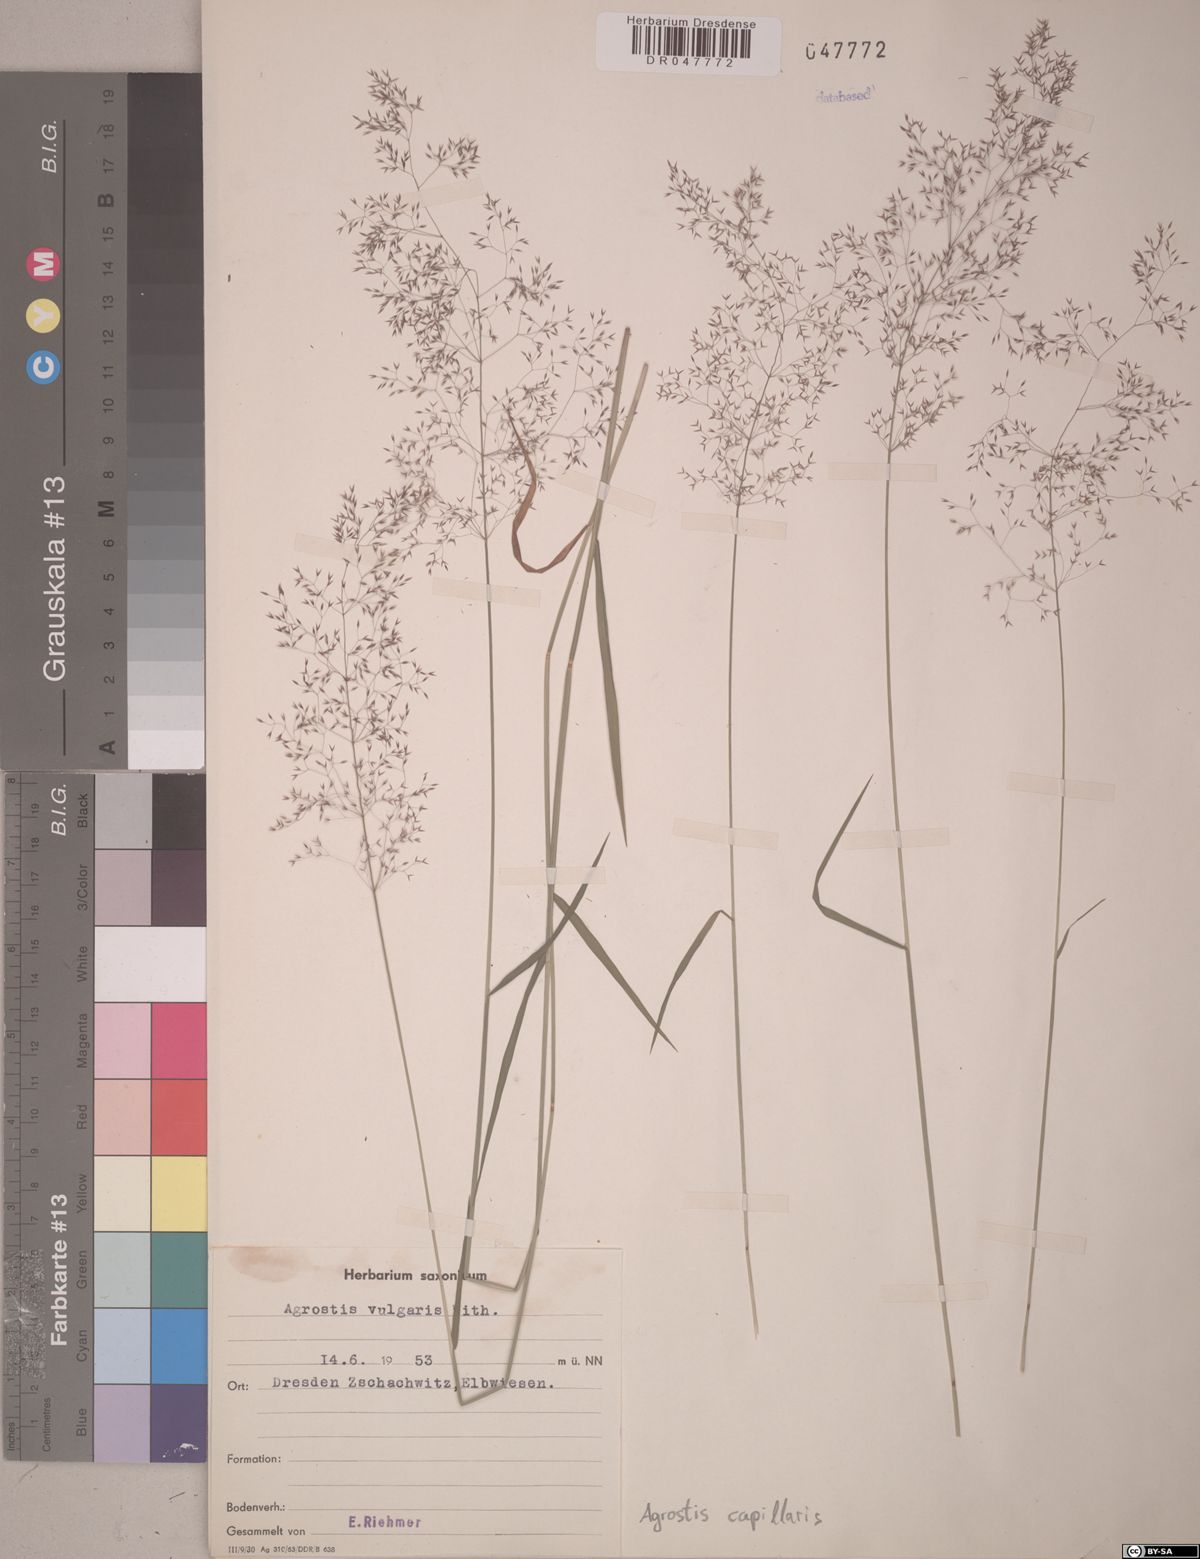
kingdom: Plantae
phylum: Tracheophyta
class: Liliopsida
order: Poales
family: Poaceae
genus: Agrostis
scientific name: Agrostis capillaris
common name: Colonial bentgrass
